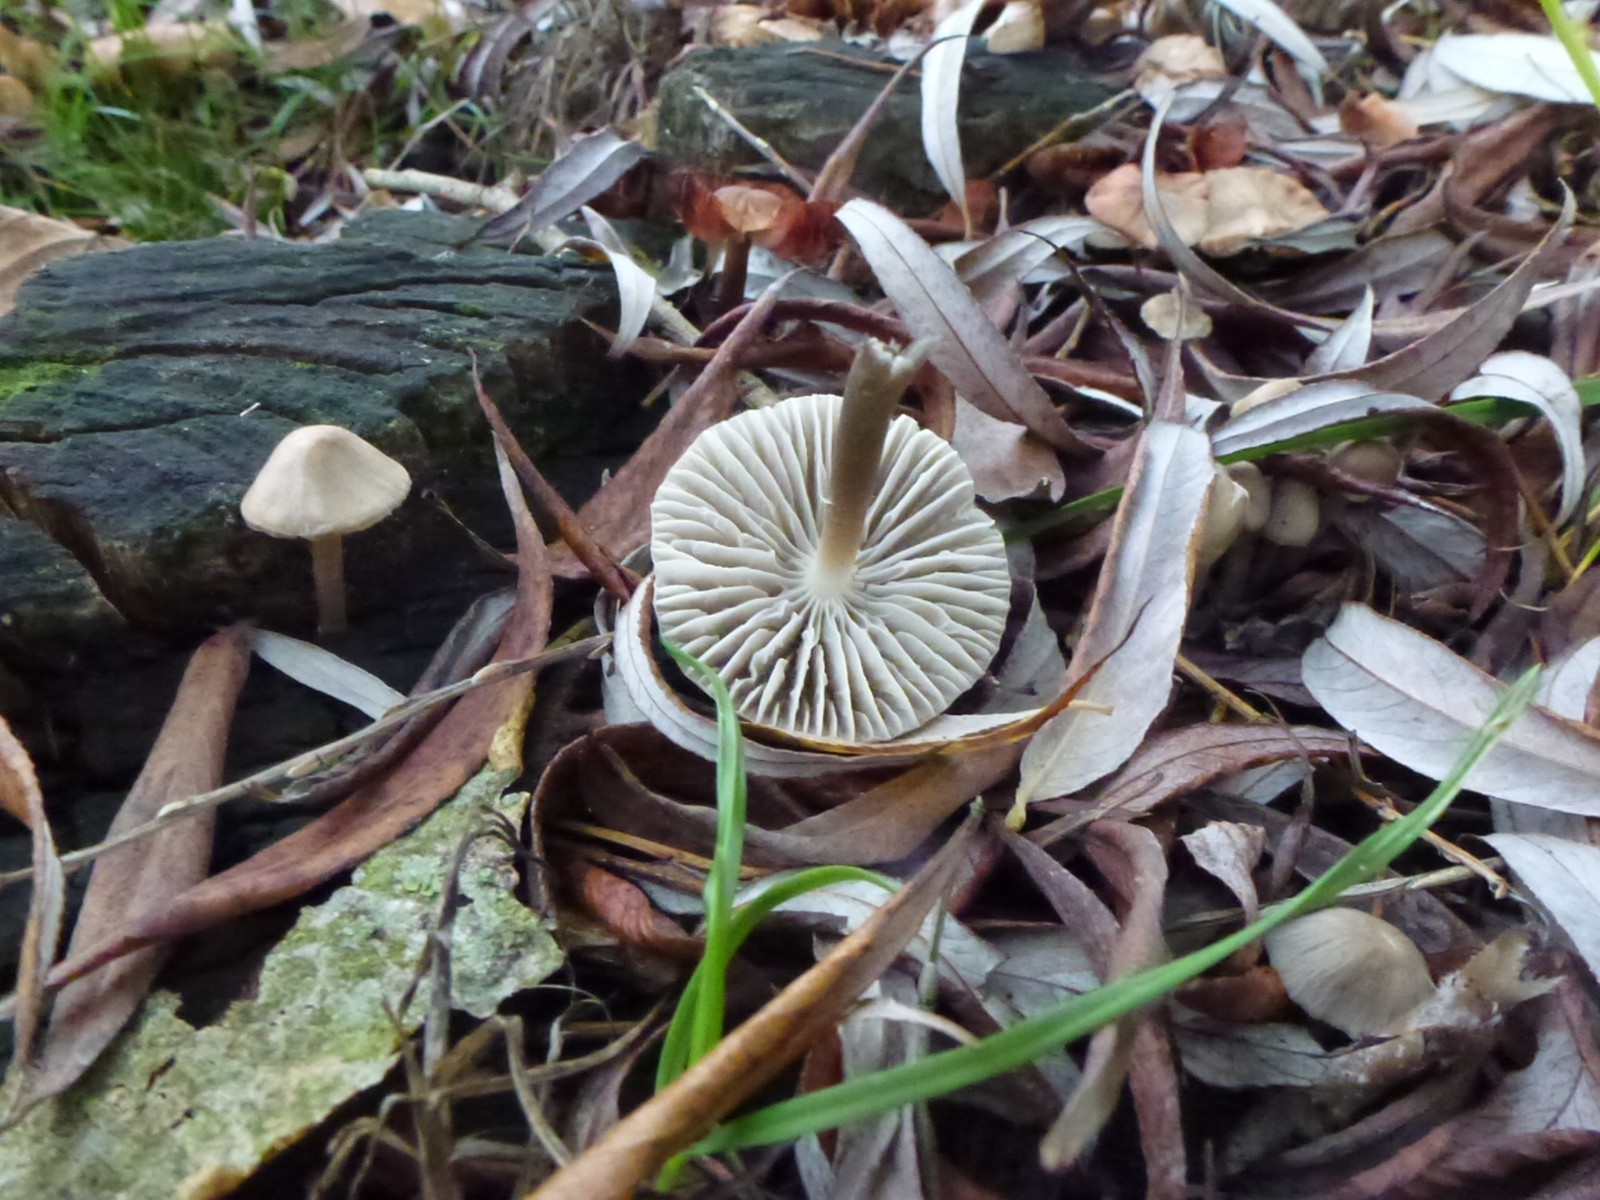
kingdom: Fungi
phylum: Basidiomycota
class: Agaricomycetes
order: Agaricales
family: Mycenaceae
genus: Mycena
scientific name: Mycena galericulata
